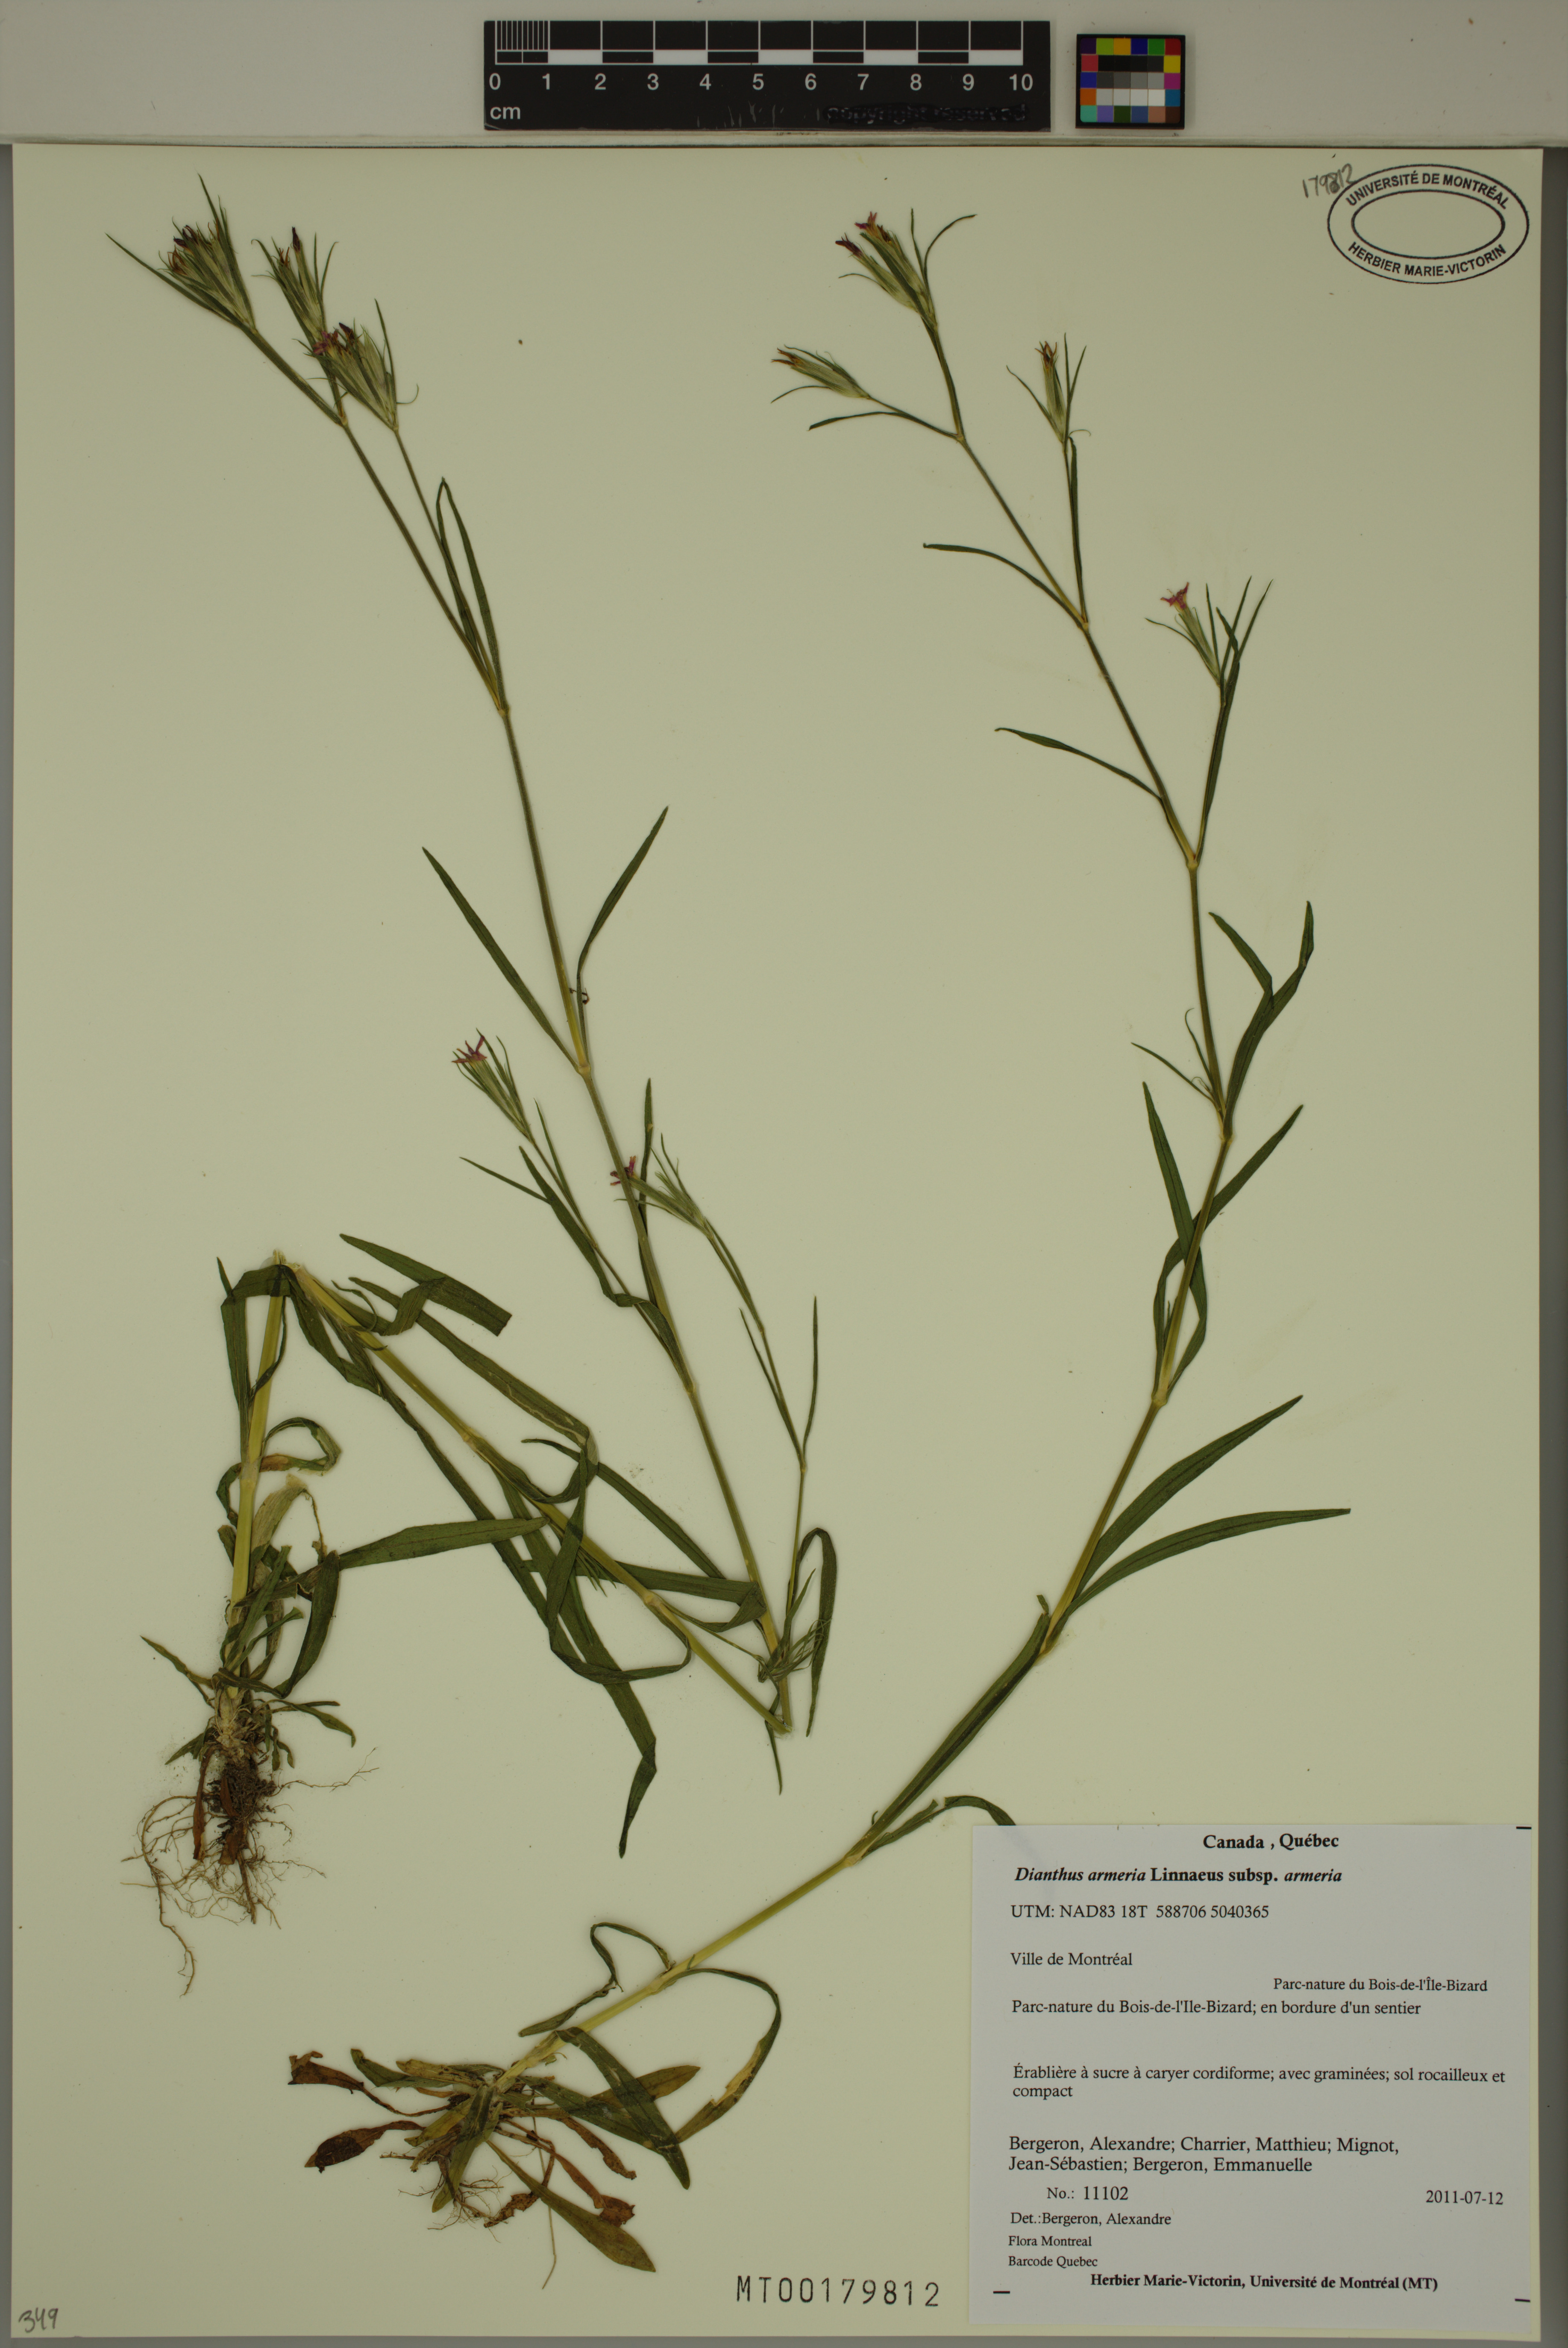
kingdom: Plantae
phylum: Tracheophyta
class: Magnoliopsida
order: Caryophyllales
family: Caryophyllaceae
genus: Dianthus
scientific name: Dianthus armeria
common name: Deptford pink
